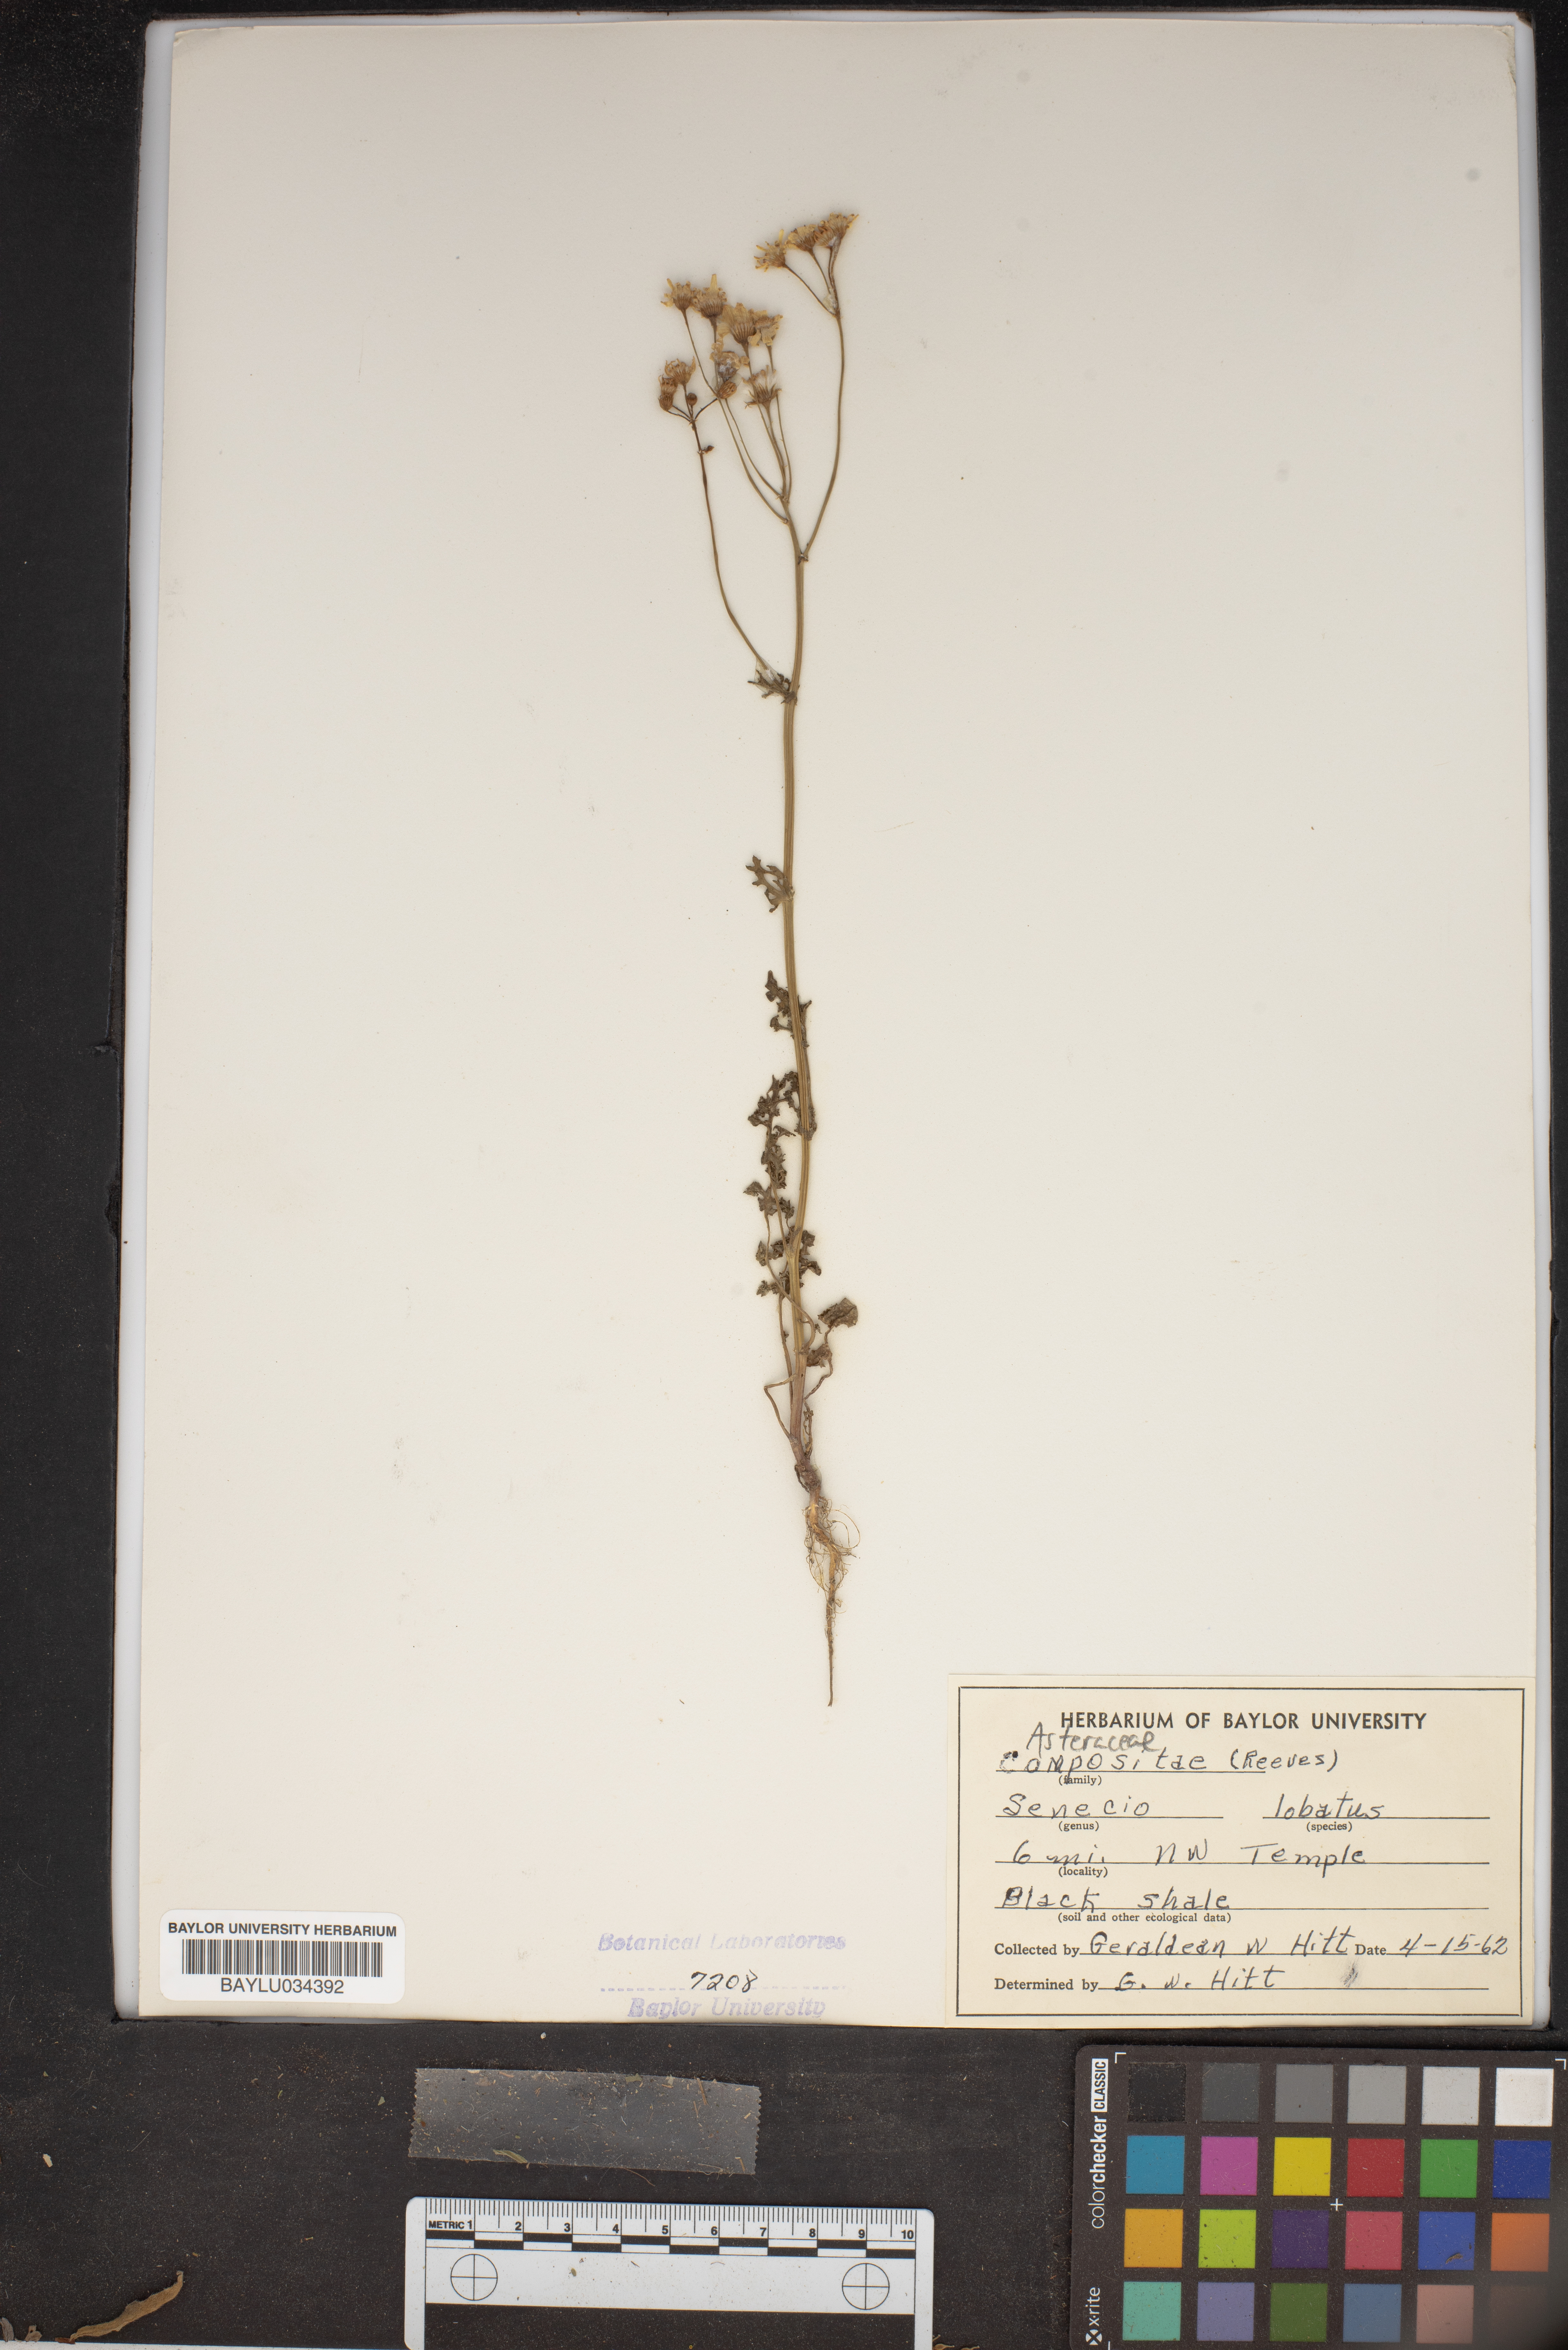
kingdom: Plantae
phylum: Tracheophyta
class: Magnoliopsida
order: Asterales
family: Asteraceae
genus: Packera
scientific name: Packera glabella
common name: Butterweed
